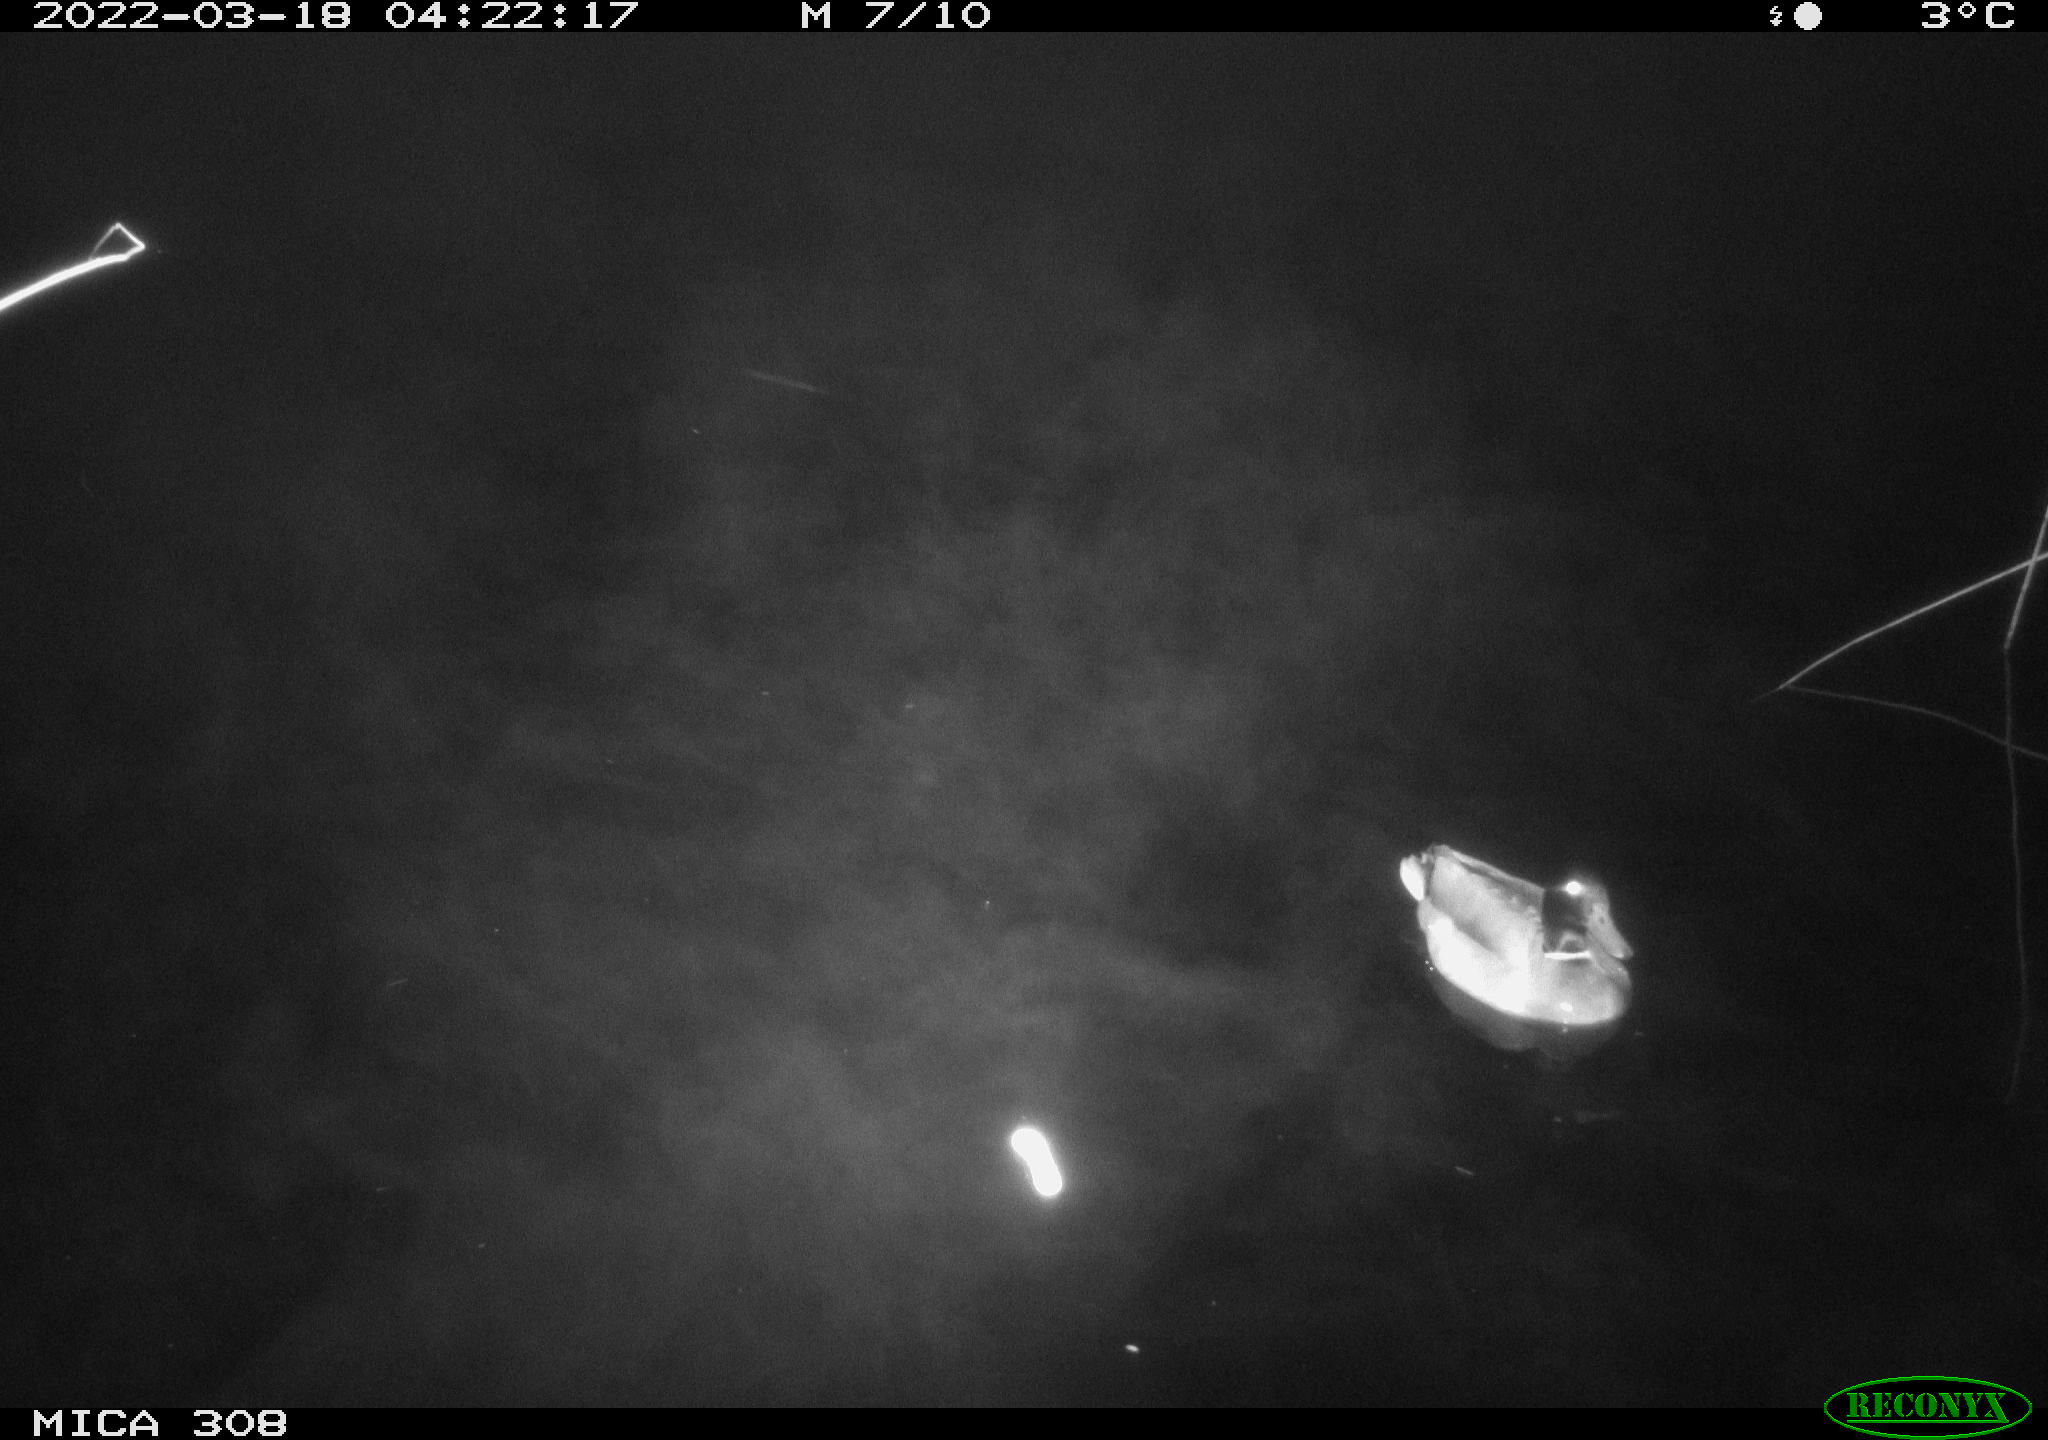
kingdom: Animalia
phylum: Chordata
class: Aves
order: Anseriformes
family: Anatidae
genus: Anas
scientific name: Anas platyrhynchos
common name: Mallard
